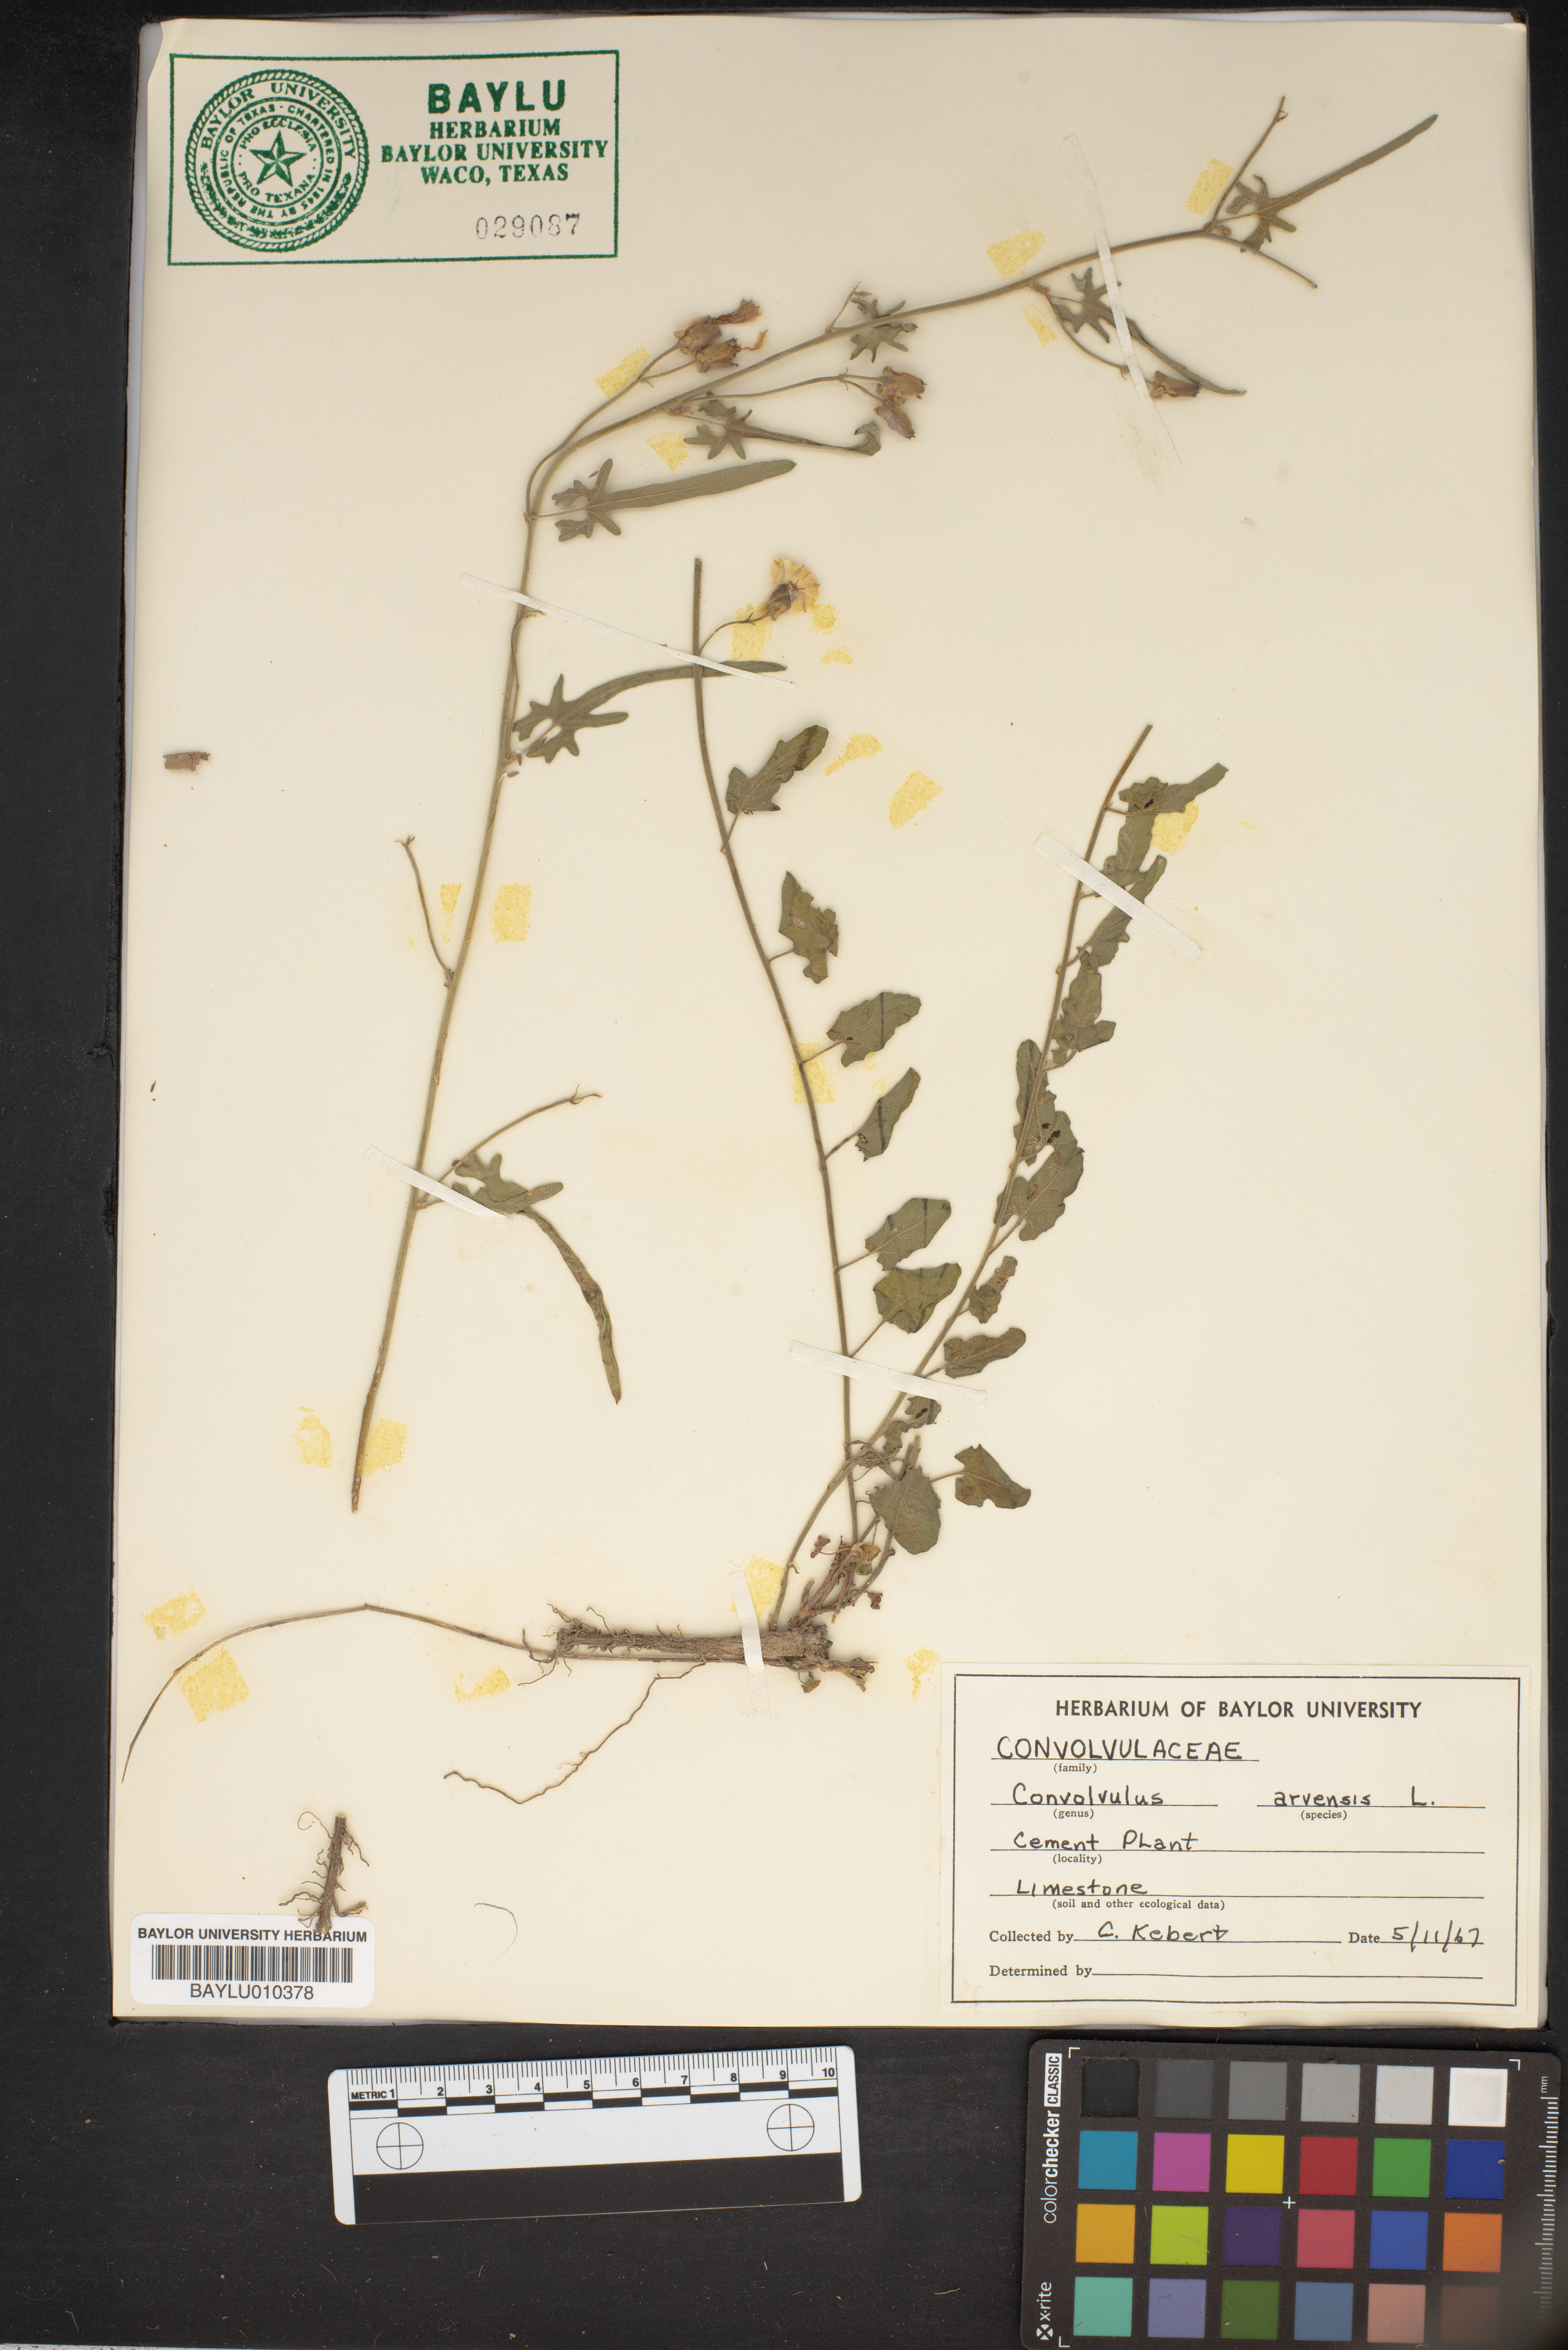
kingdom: Plantae
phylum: Tracheophyta
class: Magnoliopsida
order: Solanales
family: Convolvulaceae
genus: Convolvulus
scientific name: Convolvulus arvensis
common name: Field bindweed
